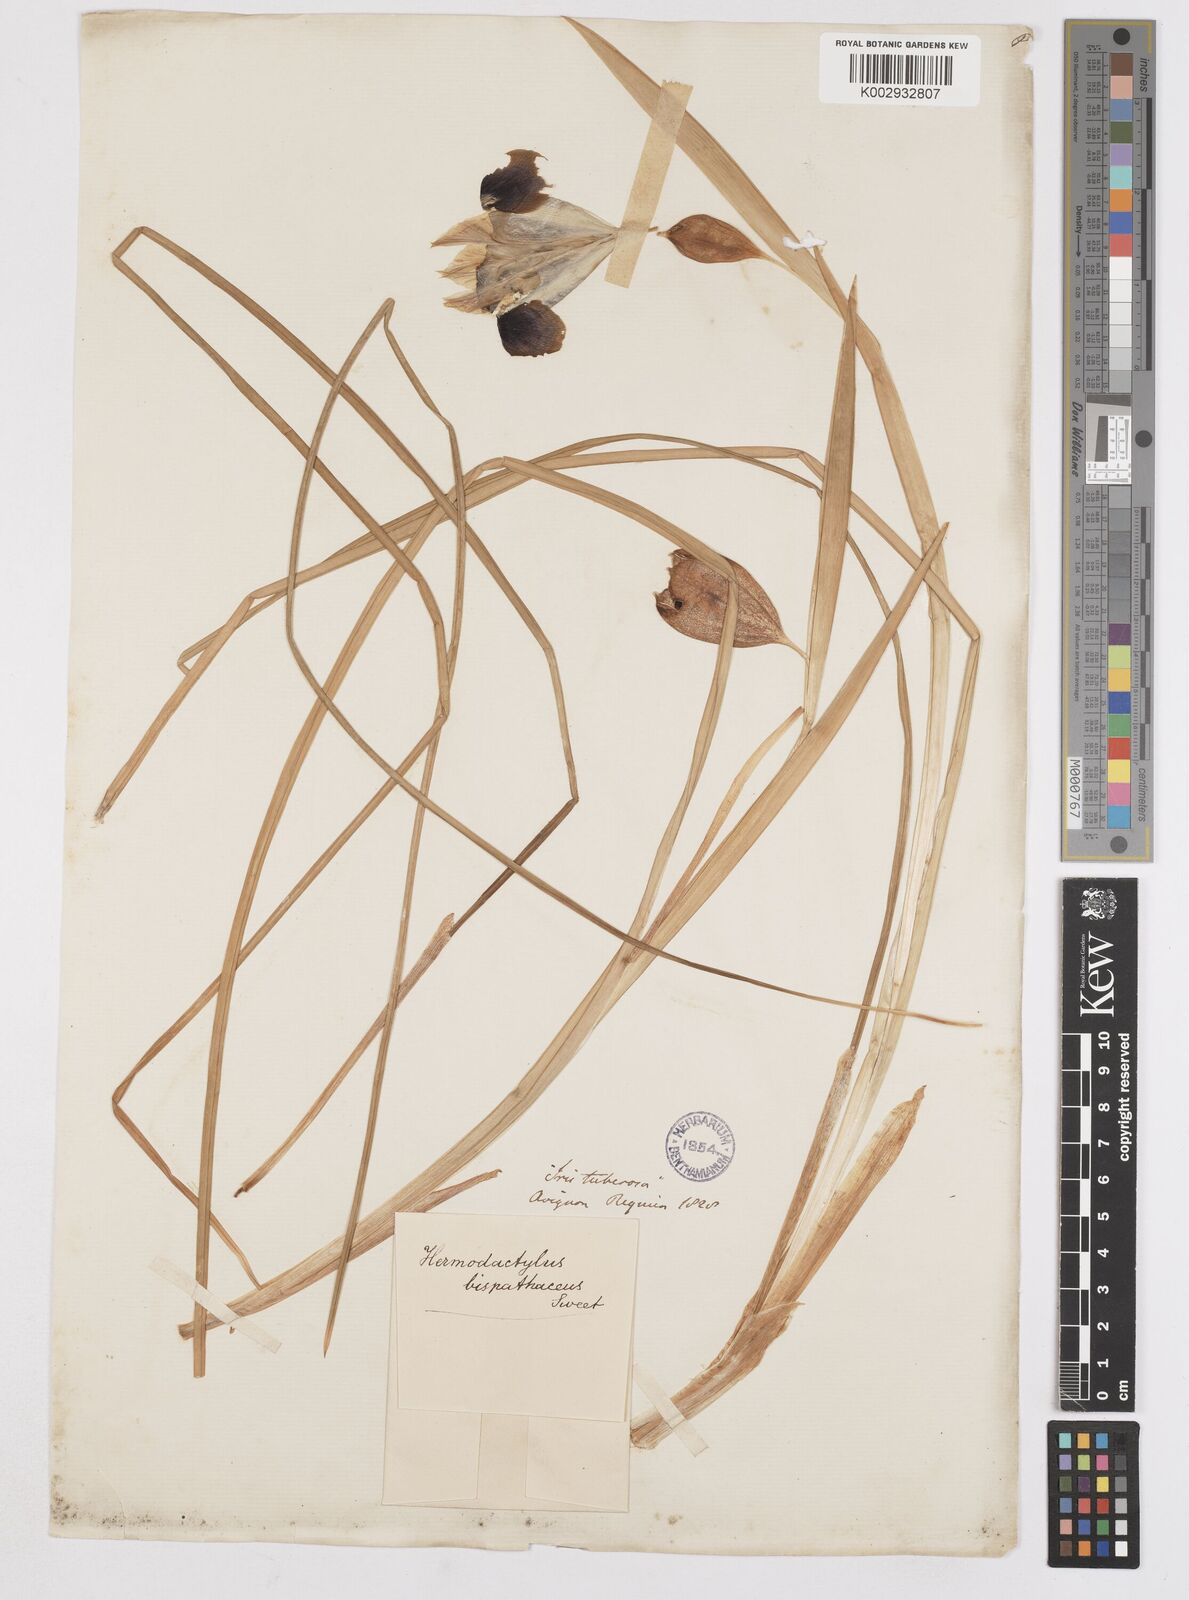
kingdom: Plantae
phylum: Tracheophyta
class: Liliopsida
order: Asparagales
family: Iridaceae
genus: Iris
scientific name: Iris
